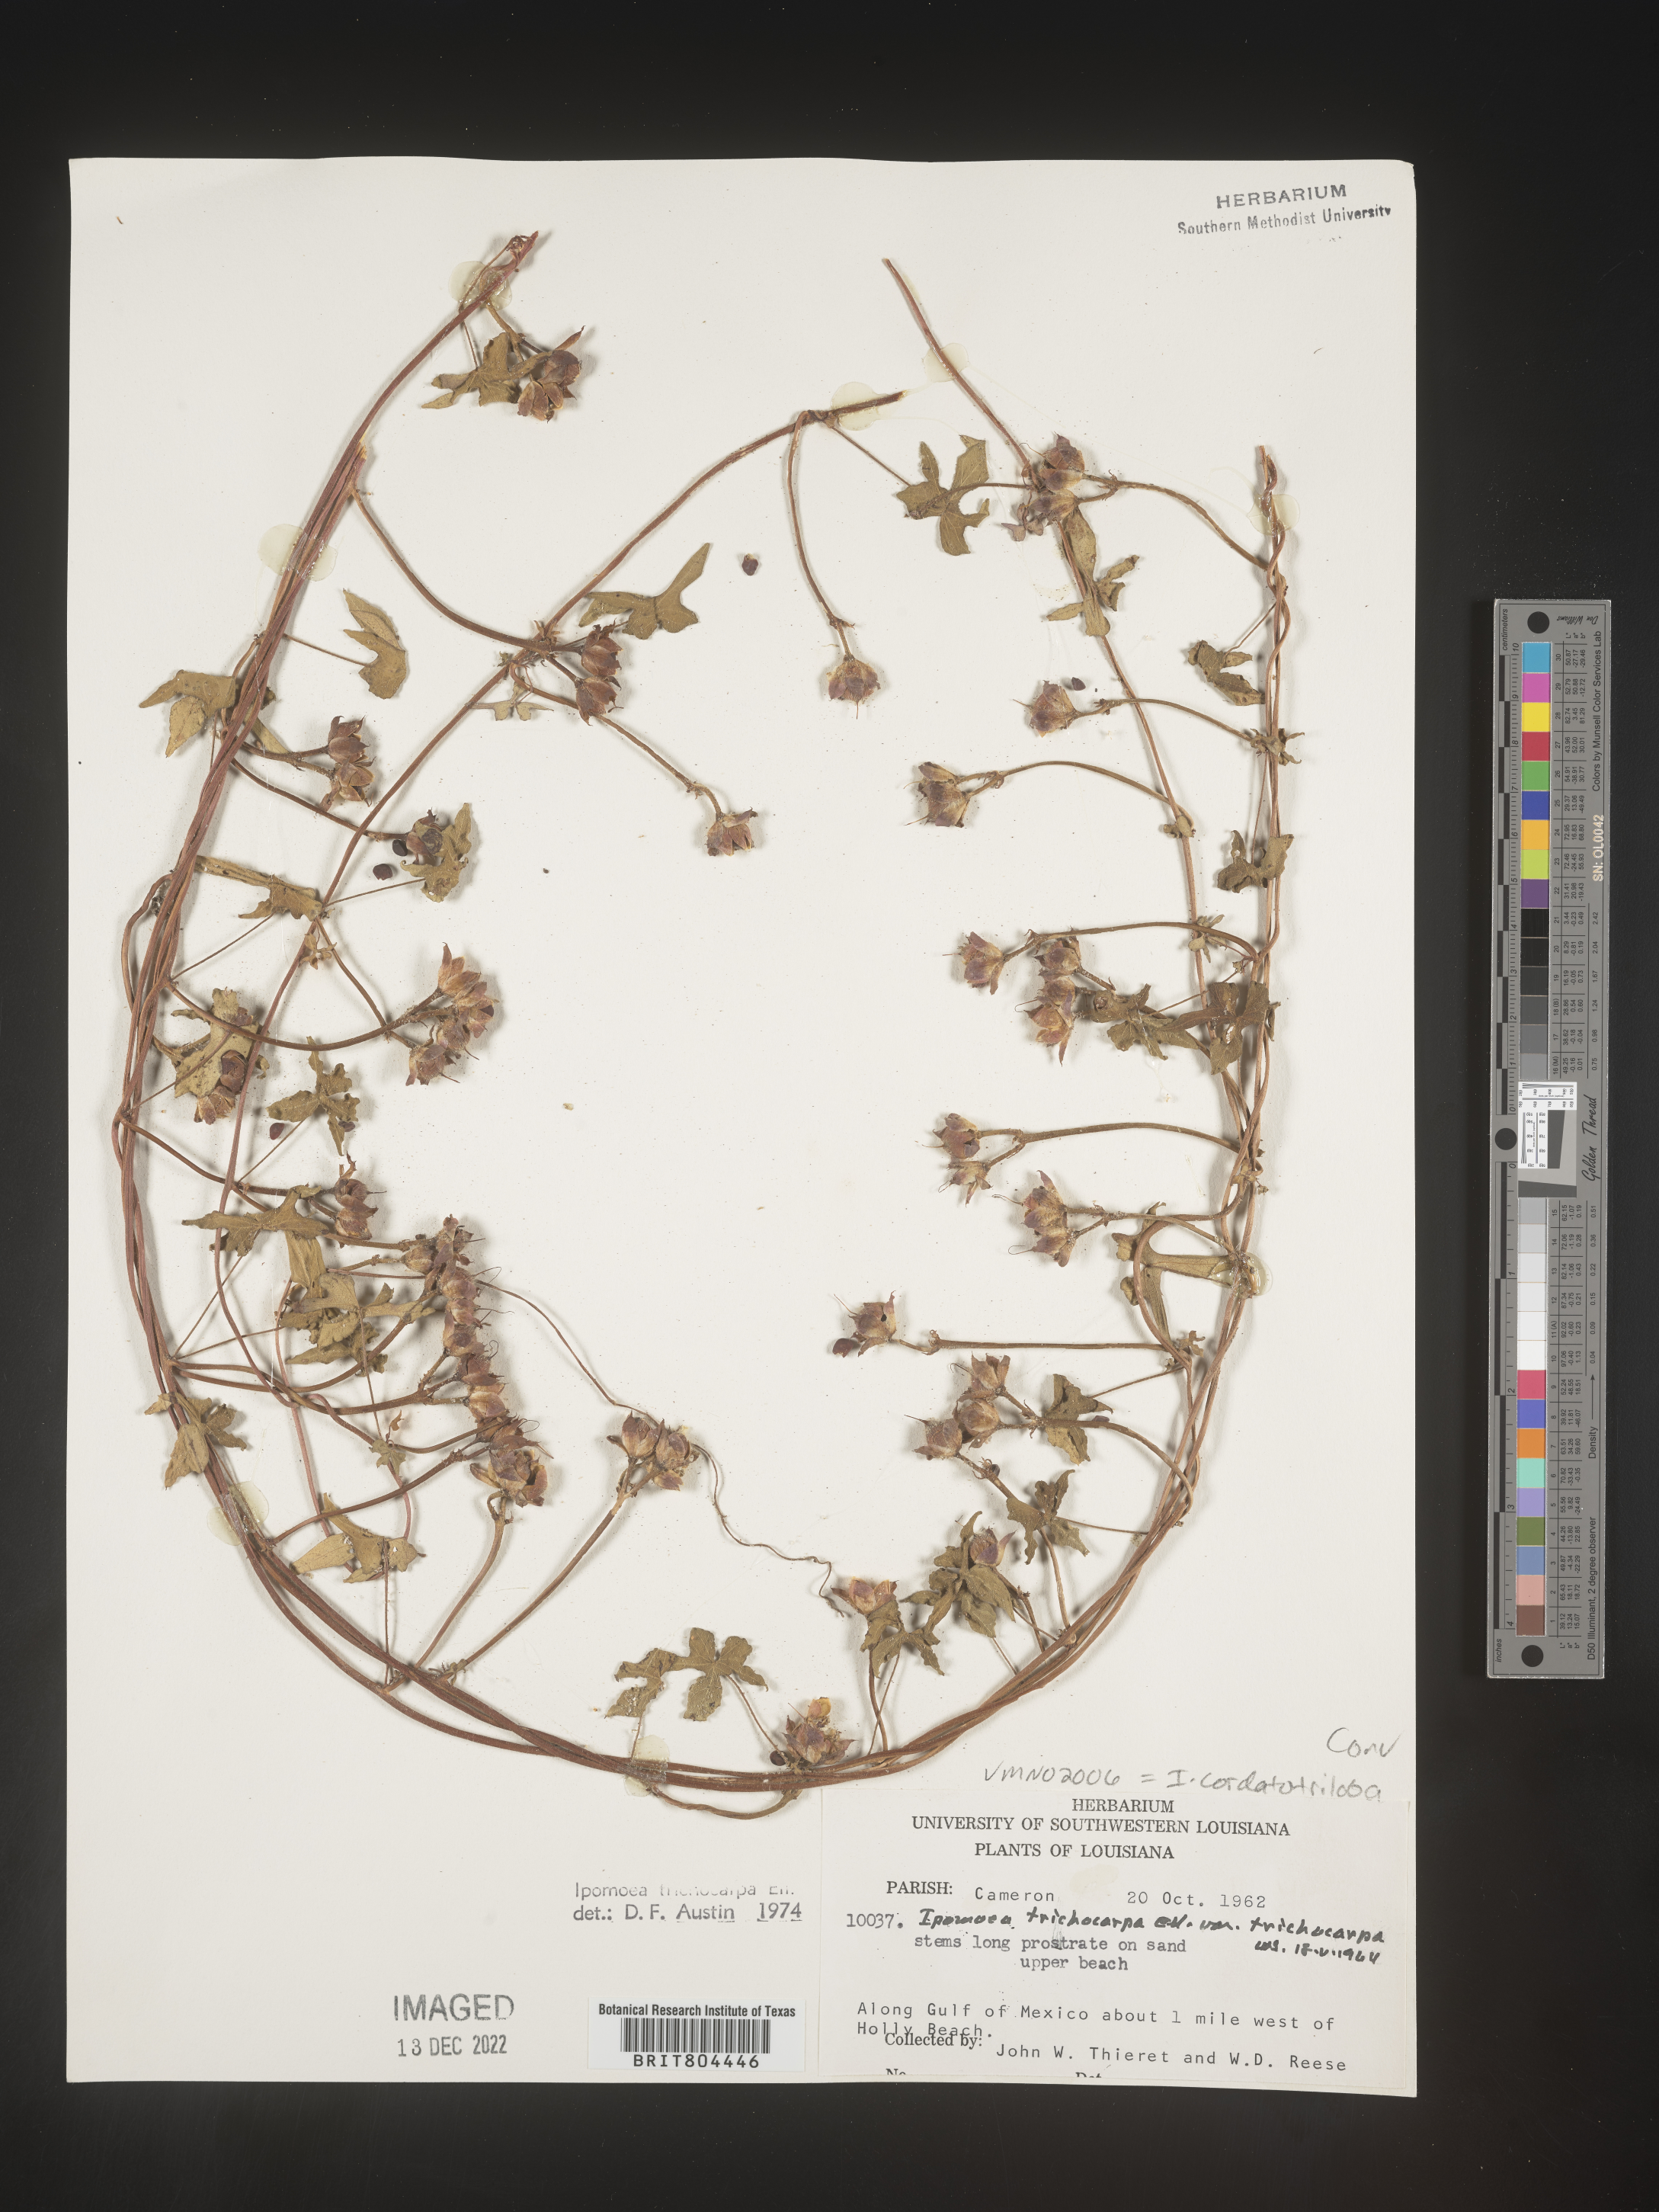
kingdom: Plantae
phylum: Tracheophyta
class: Magnoliopsida
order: Solanales
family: Convolvulaceae
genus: Ipomoea
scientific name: Ipomoea cordatotriloba
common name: Cotton morning glory
